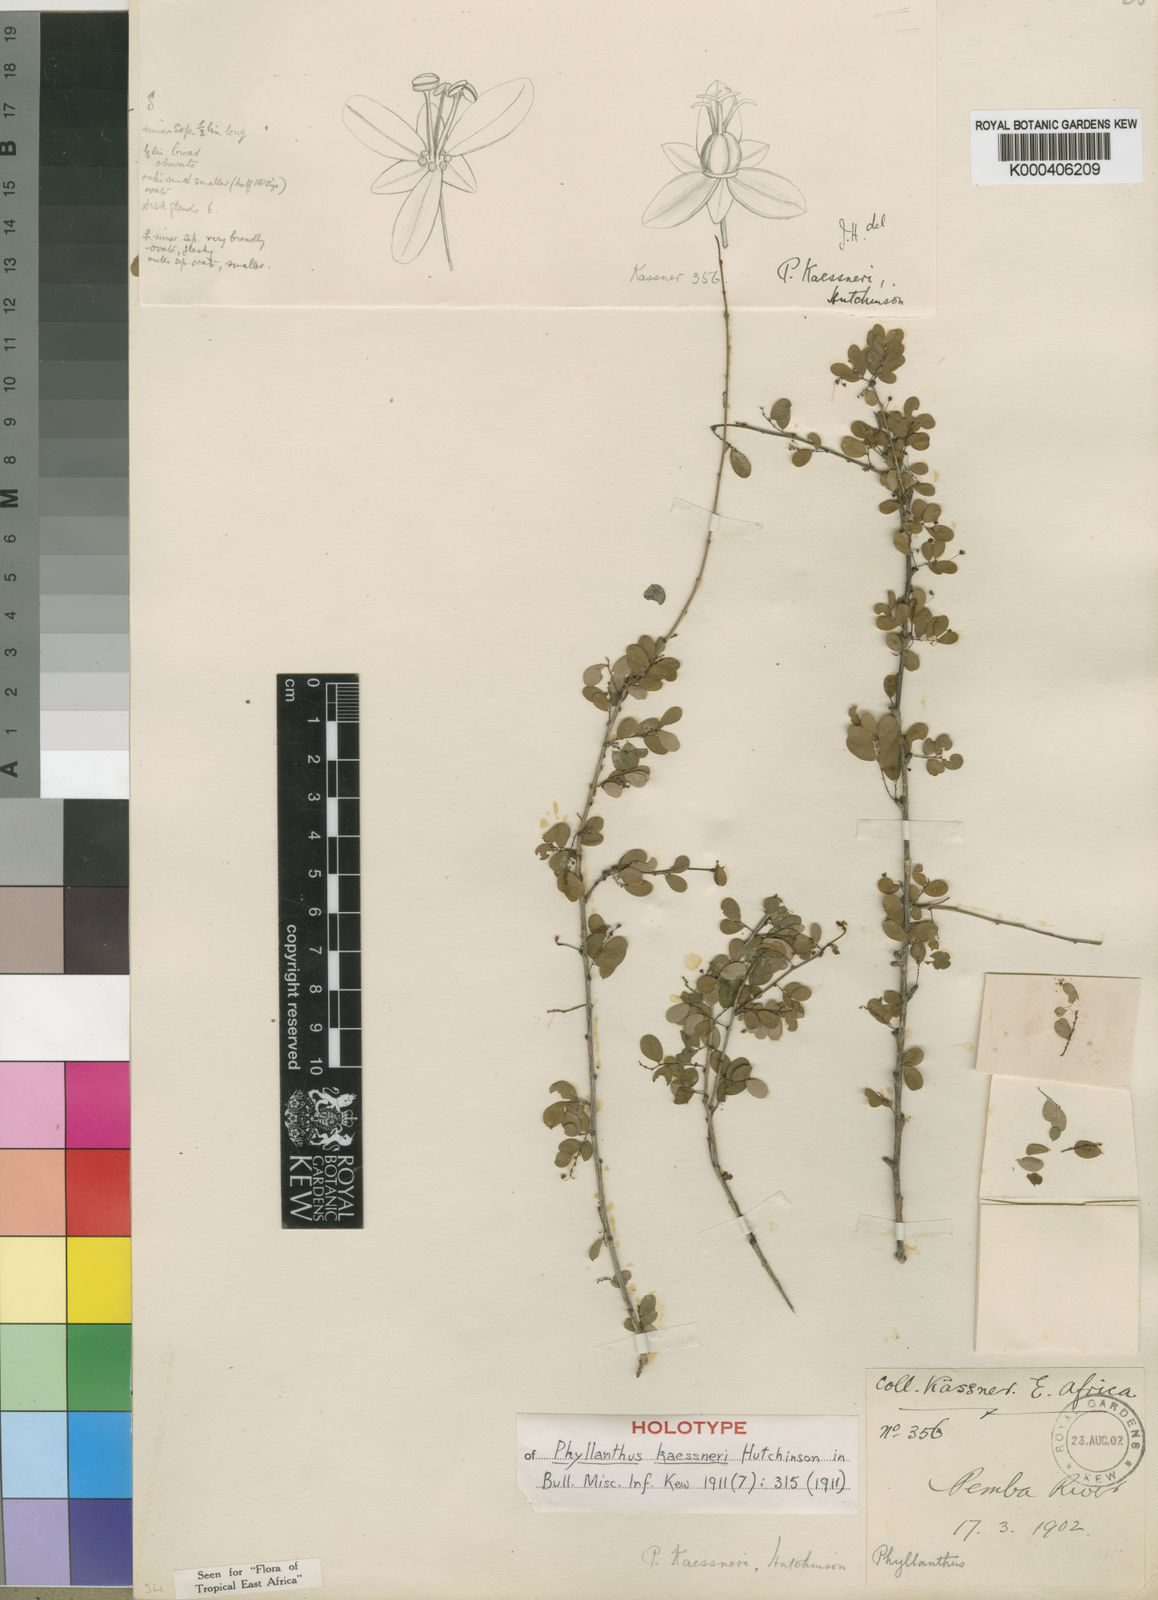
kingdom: Plantae
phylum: Tracheophyta
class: Magnoliopsida
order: Malpighiales
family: Phyllanthaceae
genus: Phyllanthus
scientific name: Phyllanthus kaessneri
